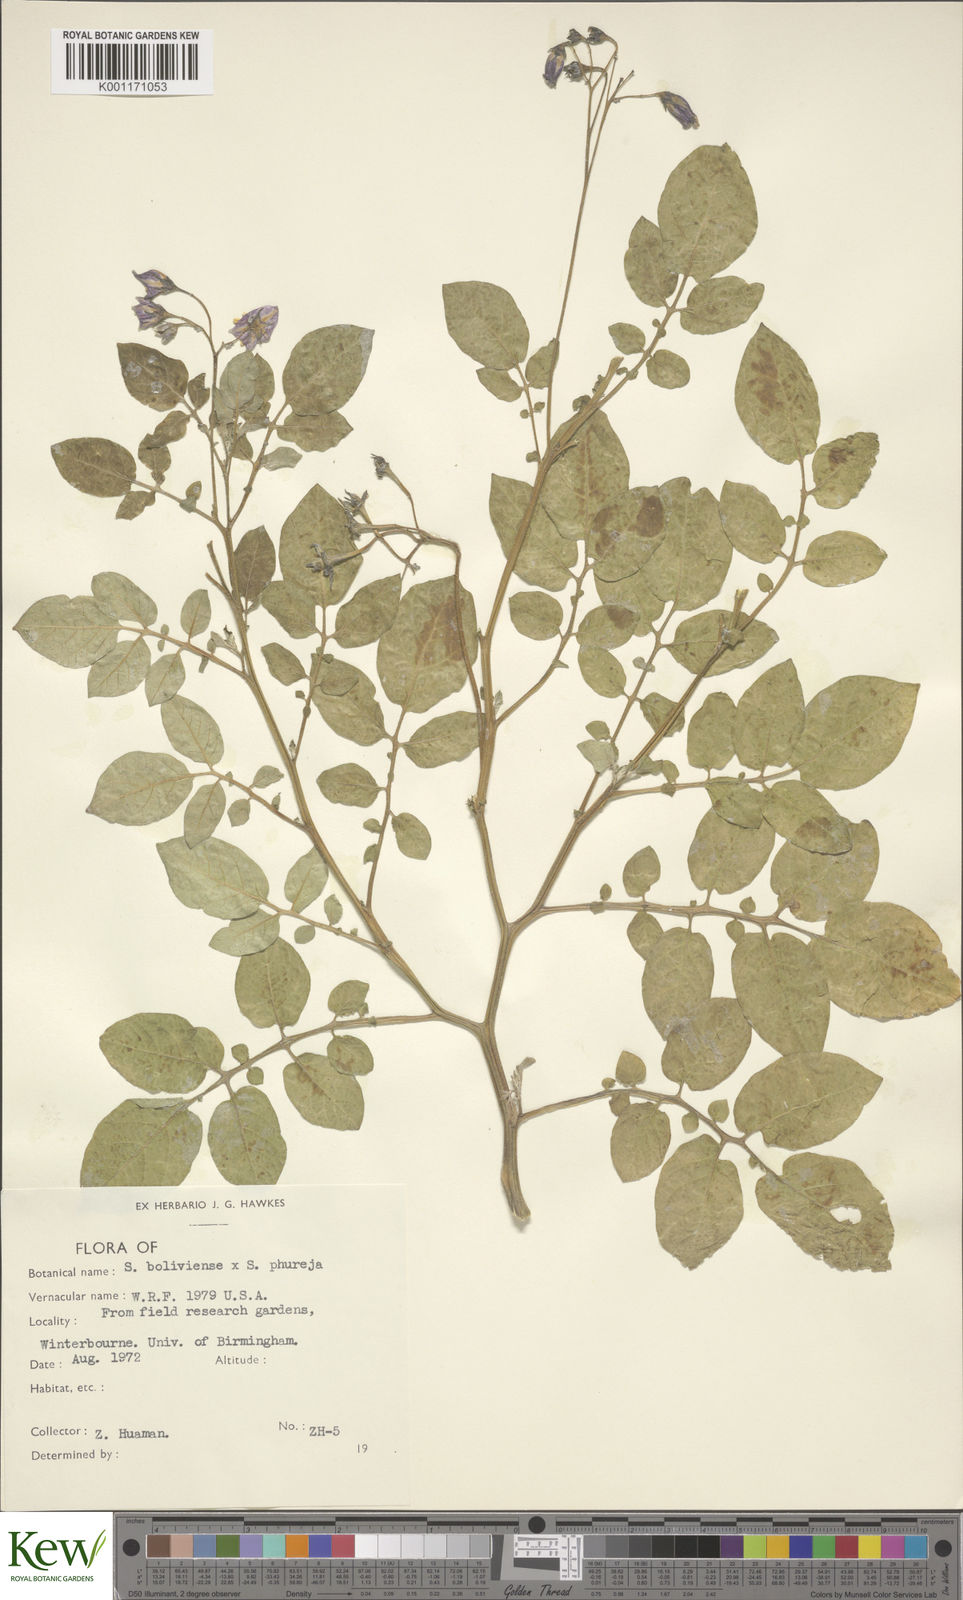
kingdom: Plantae
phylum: Tracheophyta
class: Magnoliopsida
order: Solanales
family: Solanaceae
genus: Solanum
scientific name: Solanum boliviense
